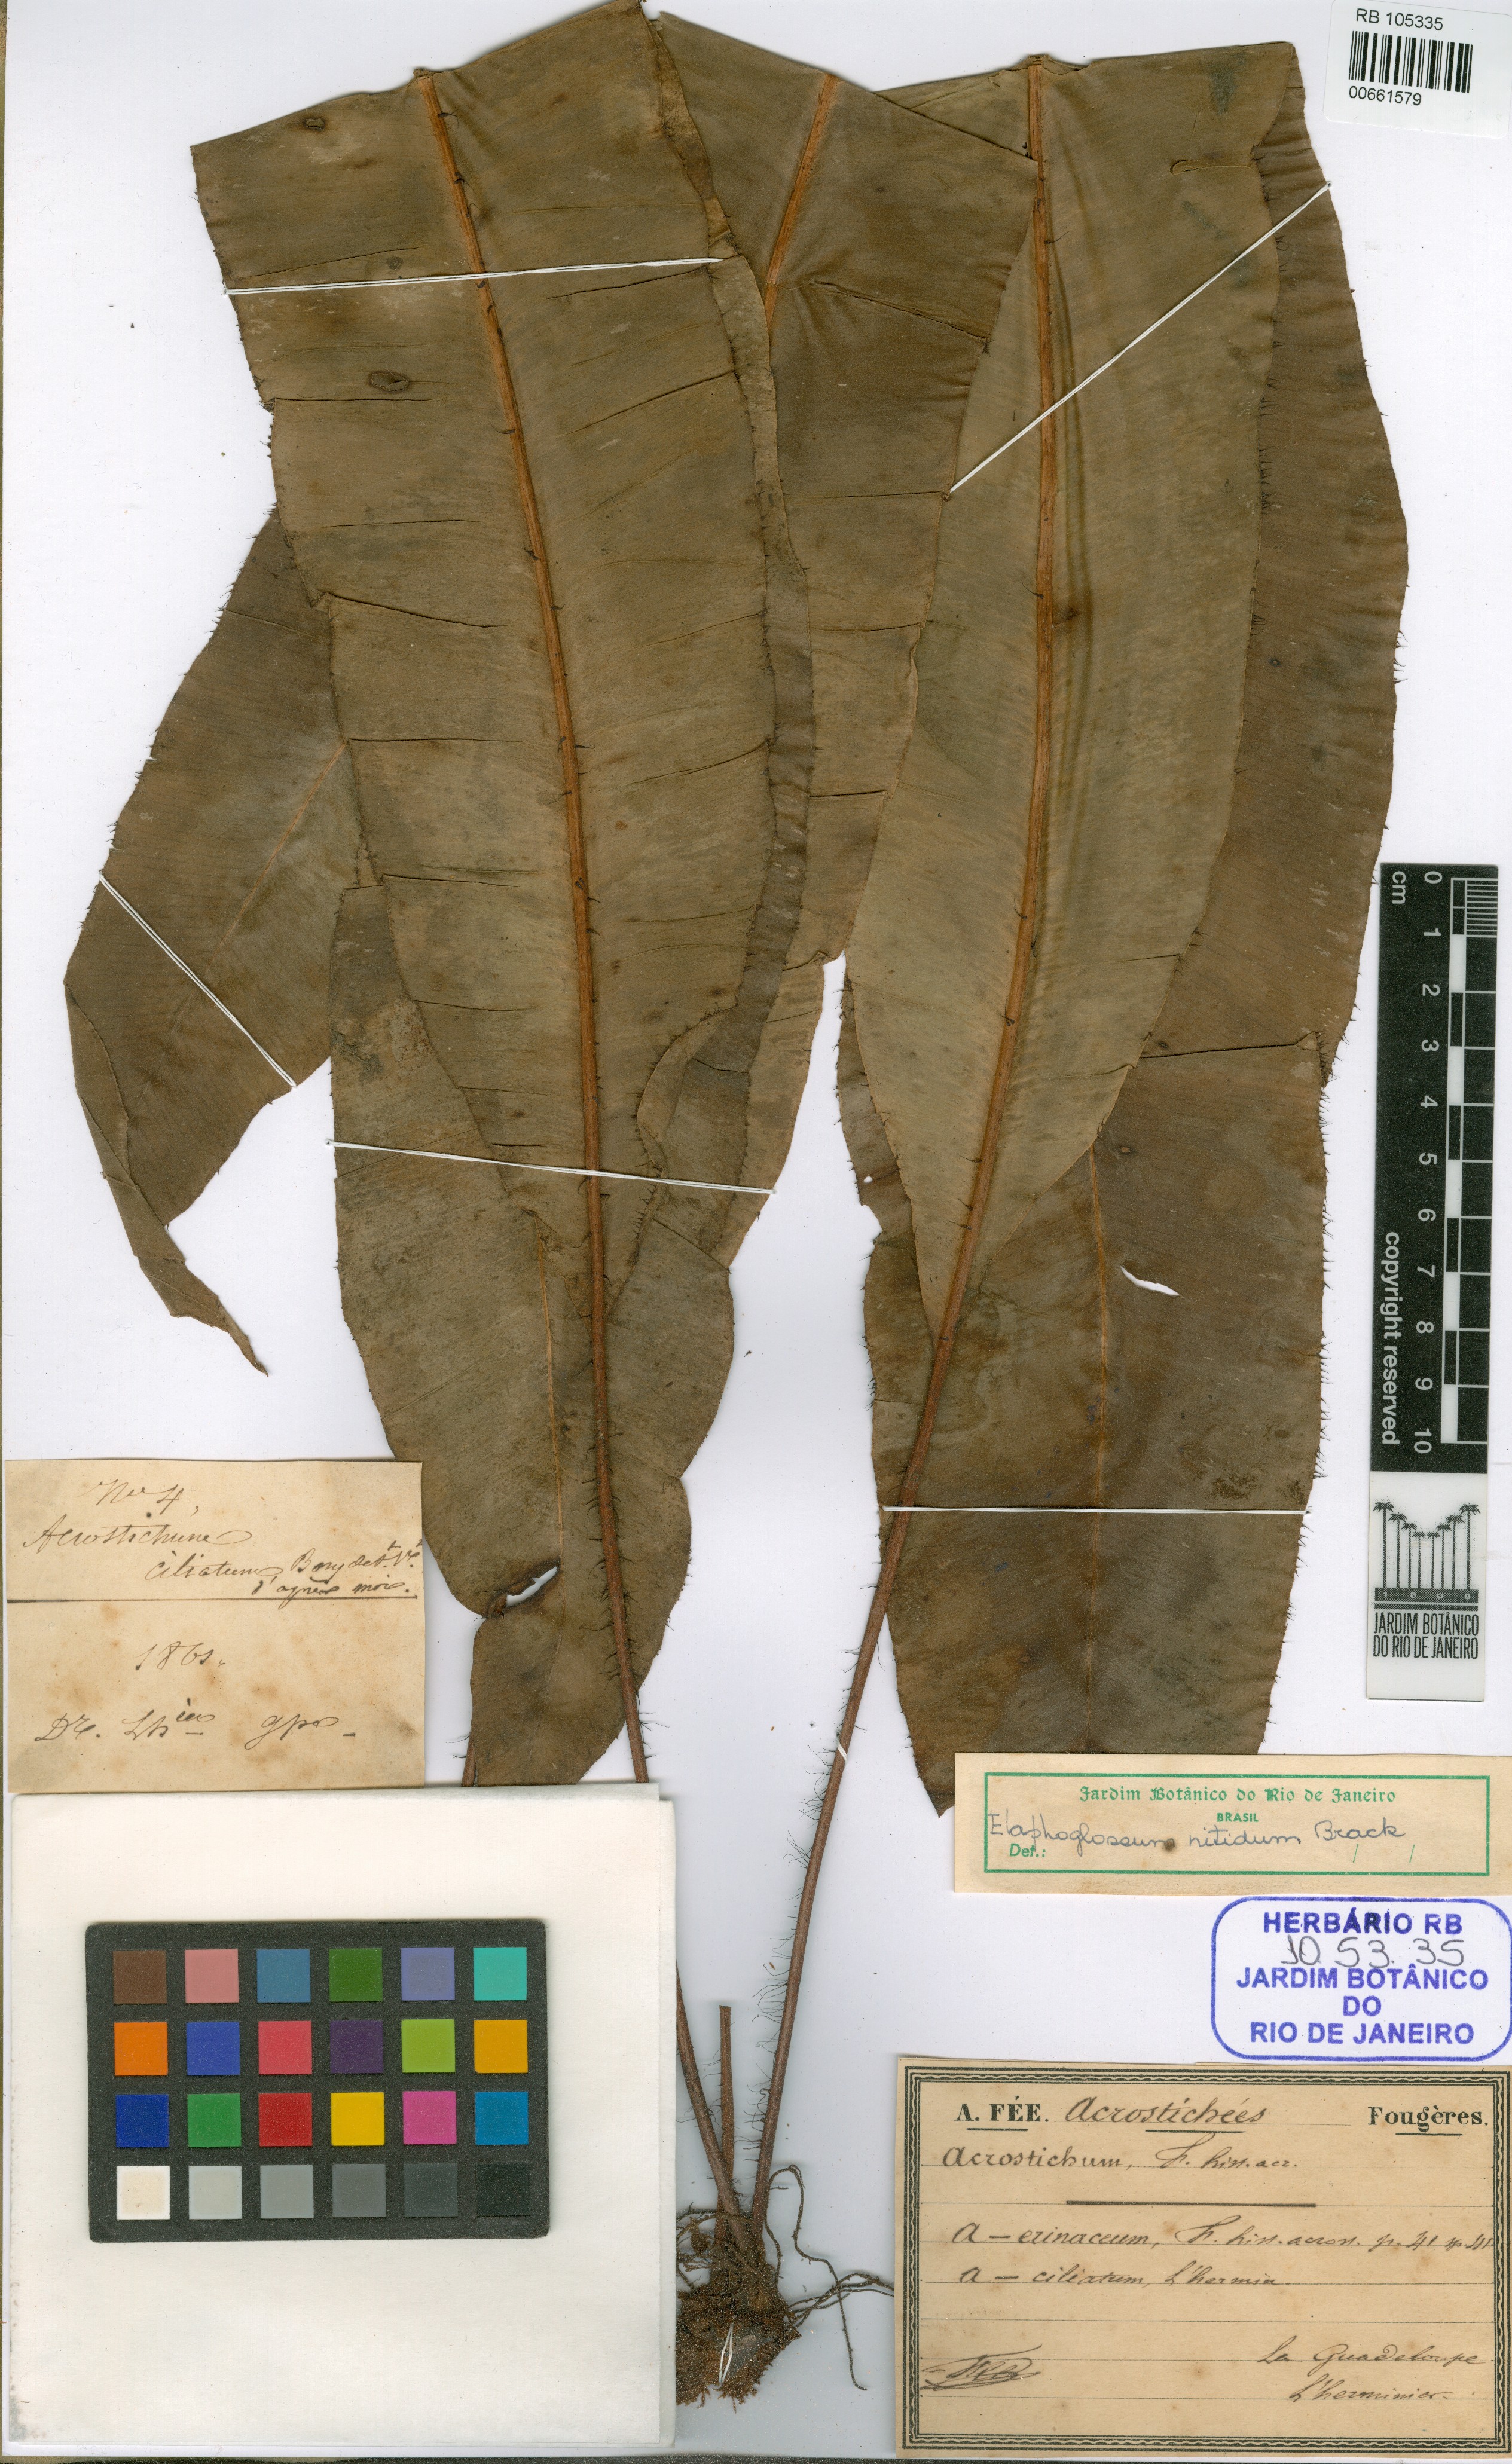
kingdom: Plantae
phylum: Tracheophyta
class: Polypodiopsida
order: Polypodiales
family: Dryopteridaceae
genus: Elaphoglossum
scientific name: Elaphoglossum micradenium
